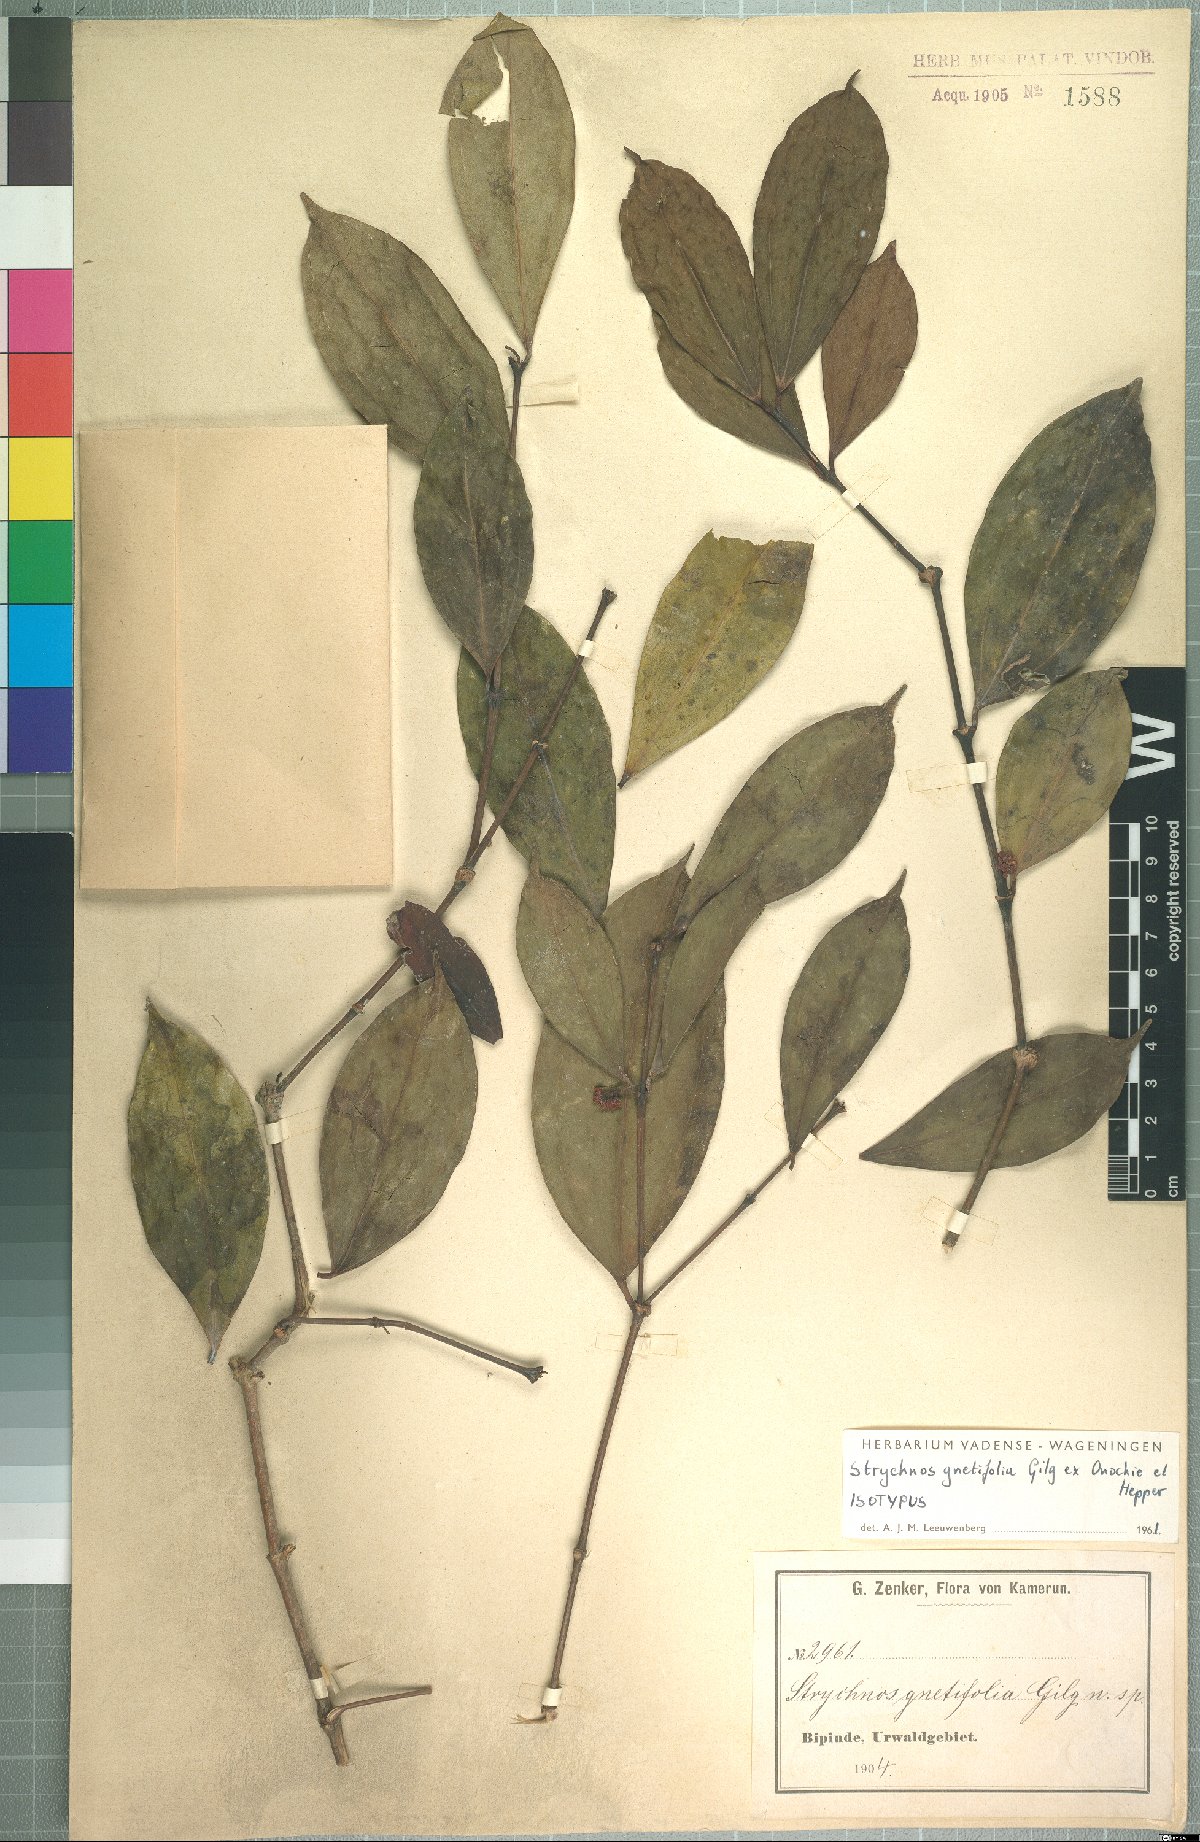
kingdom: Plantae
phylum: Tracheophyta
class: Magnoliopsida
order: Gentianales
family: Loganiaceae
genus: Strychnos
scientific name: Strychnos gnetifolia
